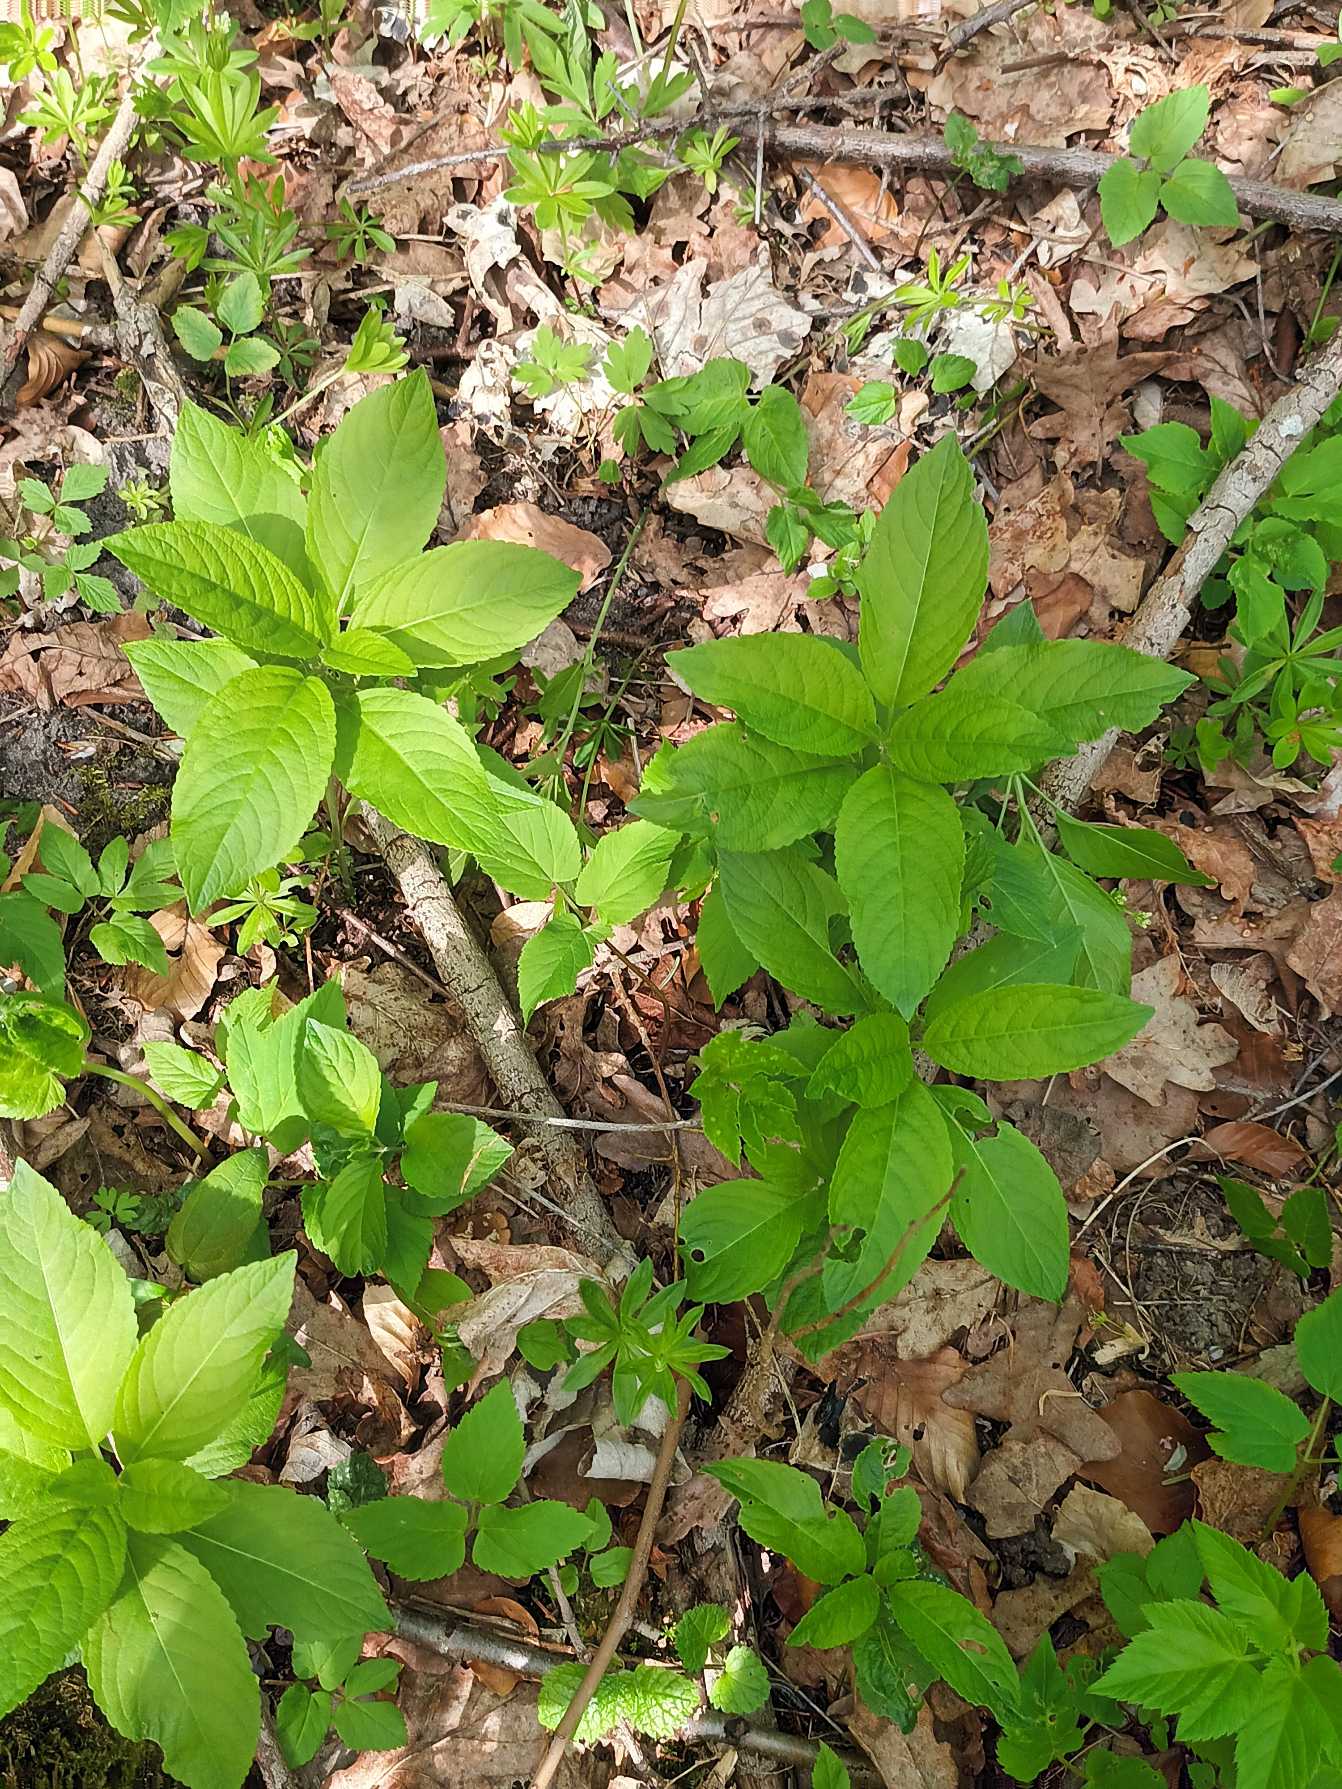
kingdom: Plantae
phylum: Tracheophyta
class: Magnoliopsida
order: Malpighiales
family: Euphorbiaceae
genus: Mercurialis
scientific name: Mercurialis perennis
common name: Almindelig bingelurt
